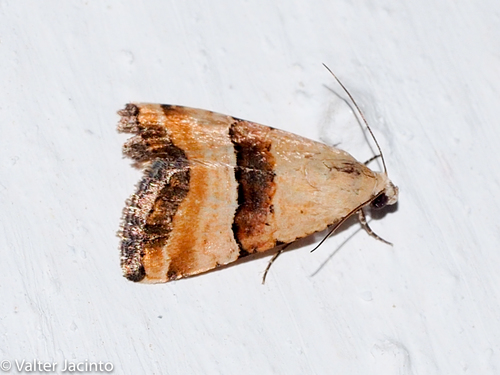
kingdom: Animalia
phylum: Arthropoda
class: Insecta
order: Lepidoptera
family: Noctuidae
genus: Pseudozarba
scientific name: Pseudozarba bipartita
